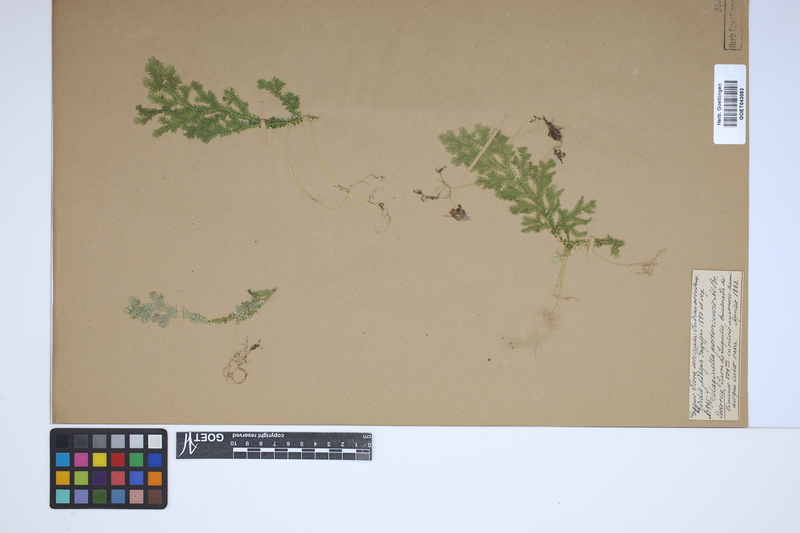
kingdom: Plantae
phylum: Tracheophyta
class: Lycopodiopsida
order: Selaginellales
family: Selaginellaceae
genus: Selaginella
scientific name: Selaginella substipitata
